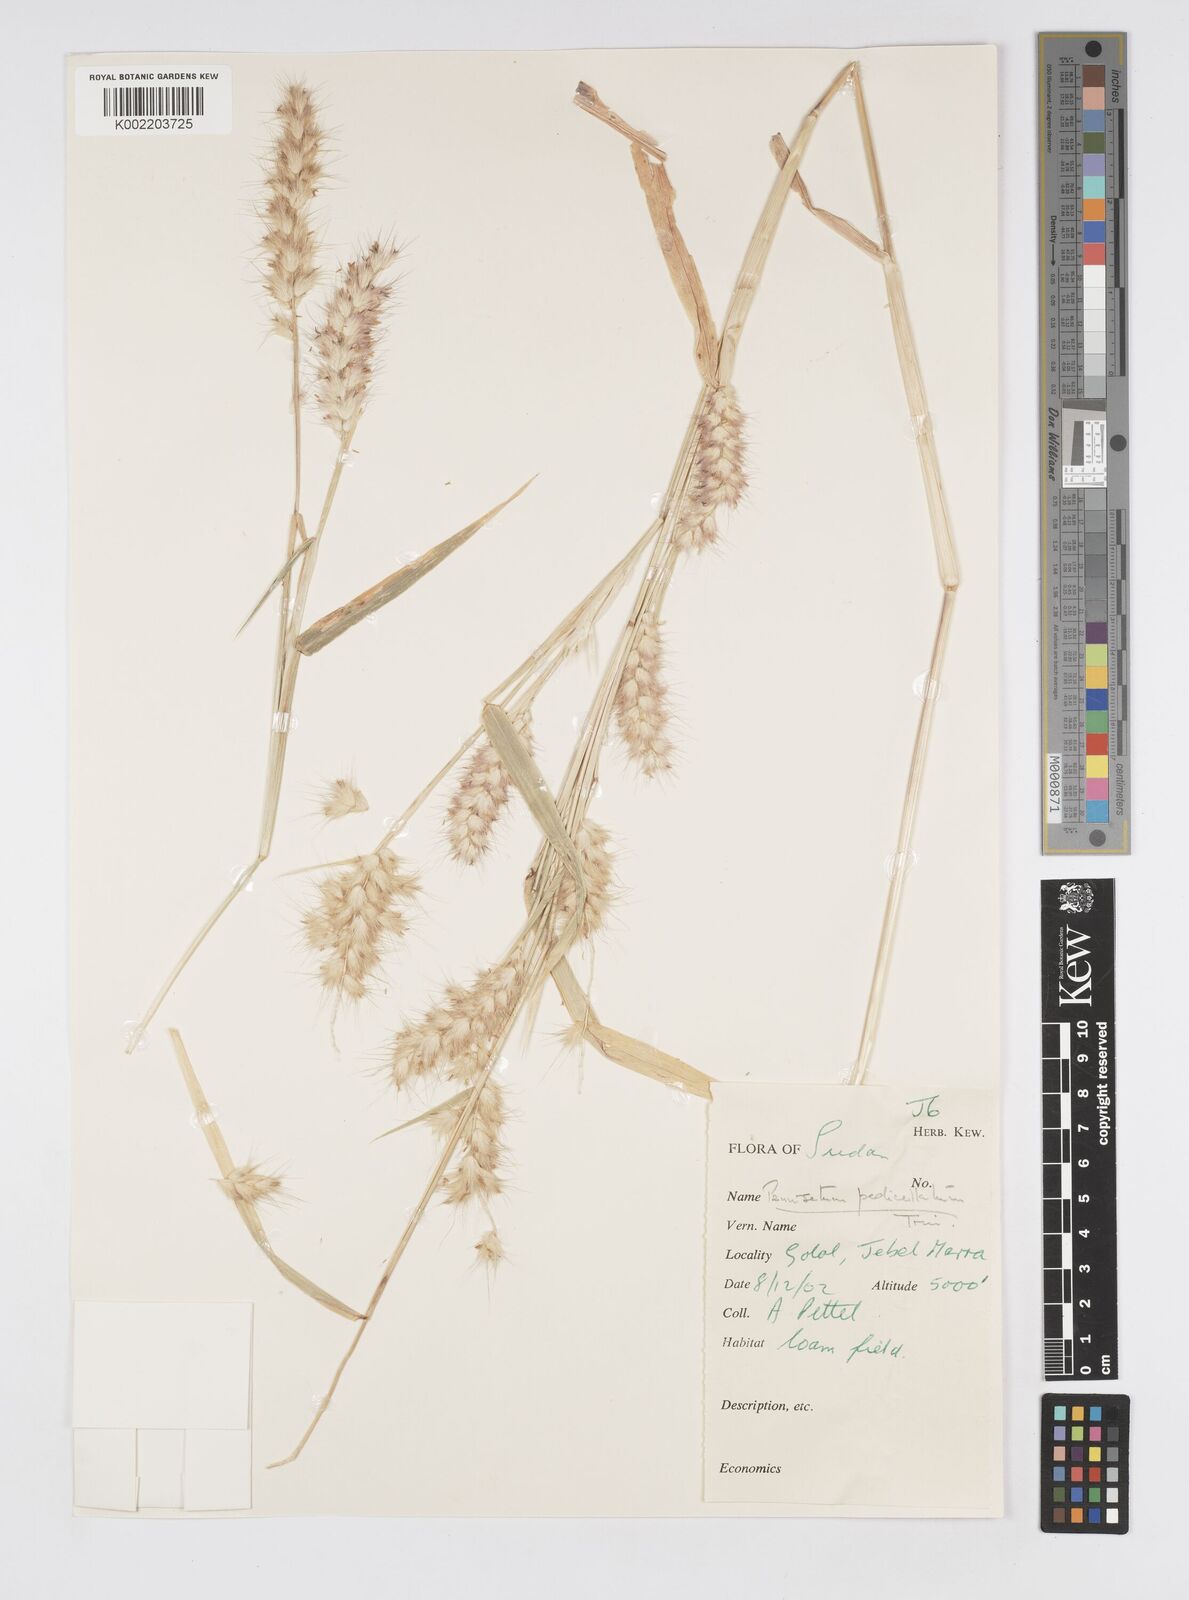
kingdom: Plantae
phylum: Tracheophyta
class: Liliopsida
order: Poales
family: Poaceae
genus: Cenchrus
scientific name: Cenchrus pedicellatus
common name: Hairy fountain grass
